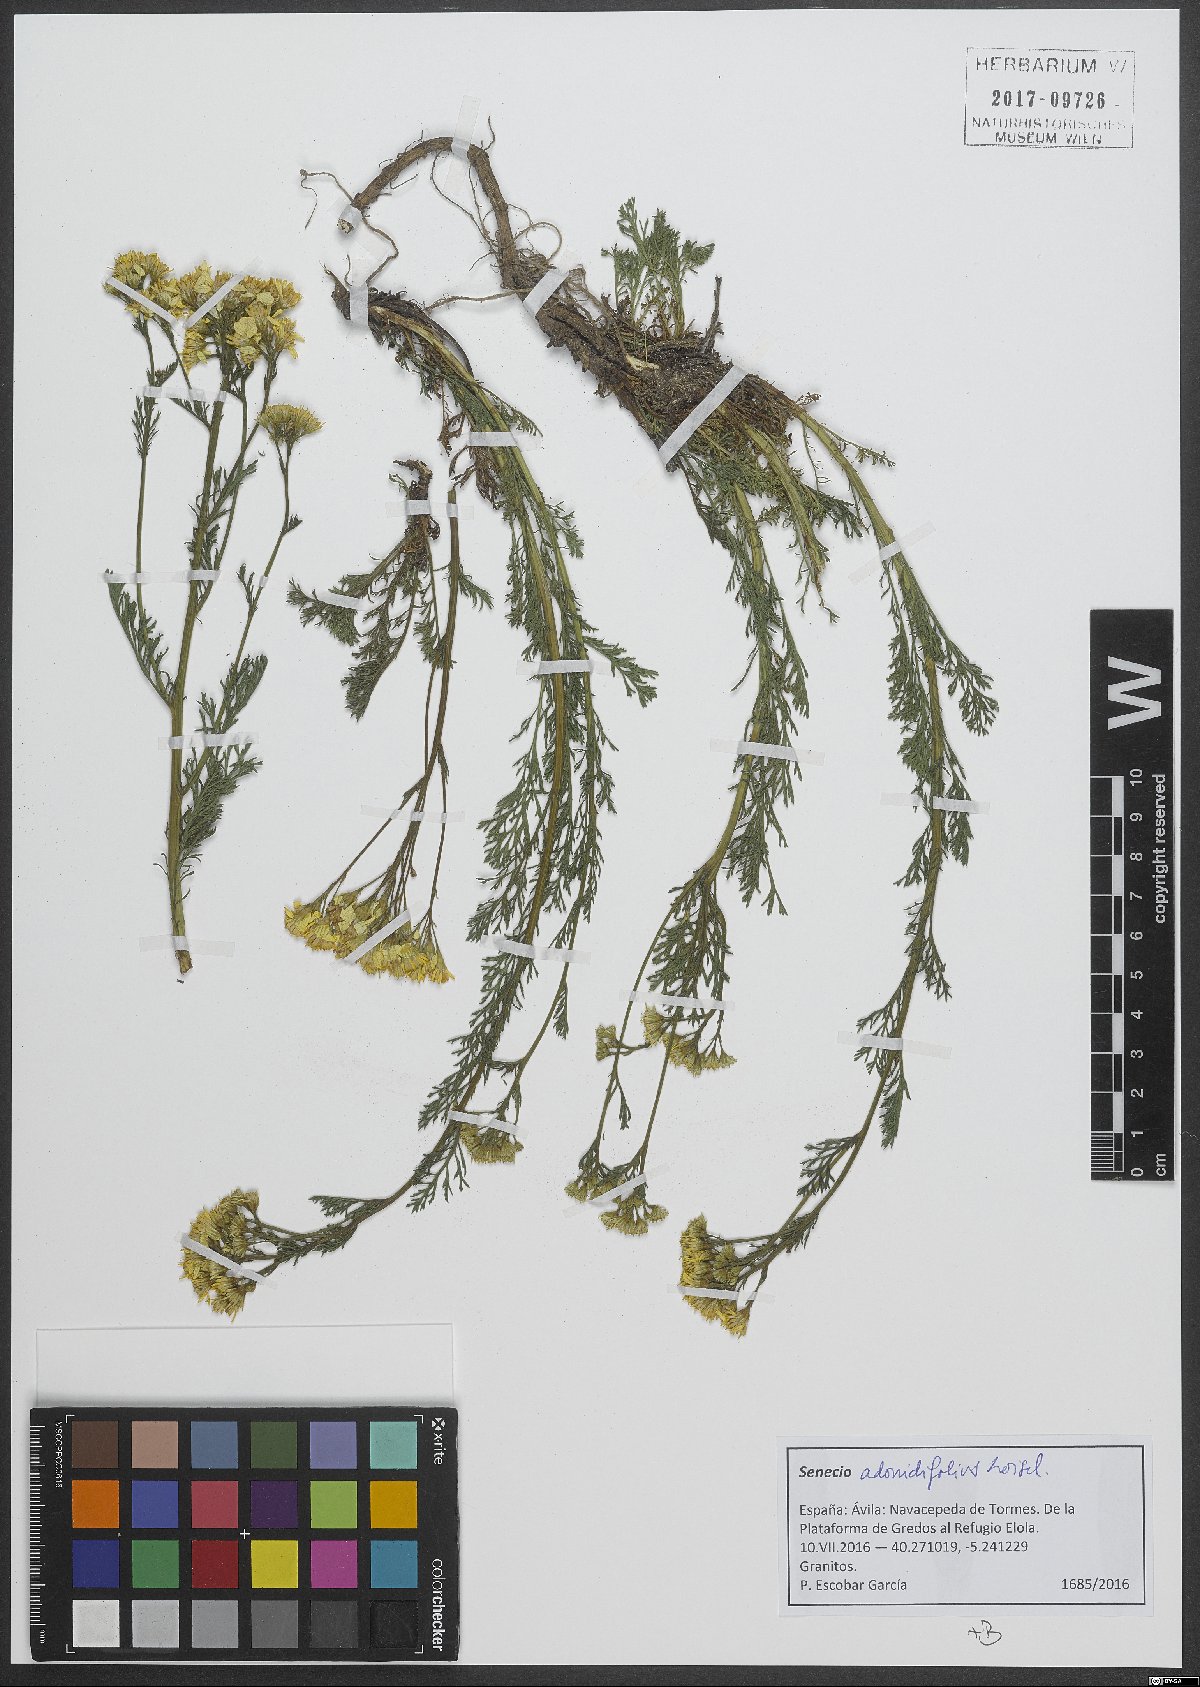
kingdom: Plantae
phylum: Tracheophyta
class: Magnoliopsida
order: Asterales
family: Asteraceae
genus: Jacobaea
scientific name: Jacobaea adonidifolia
